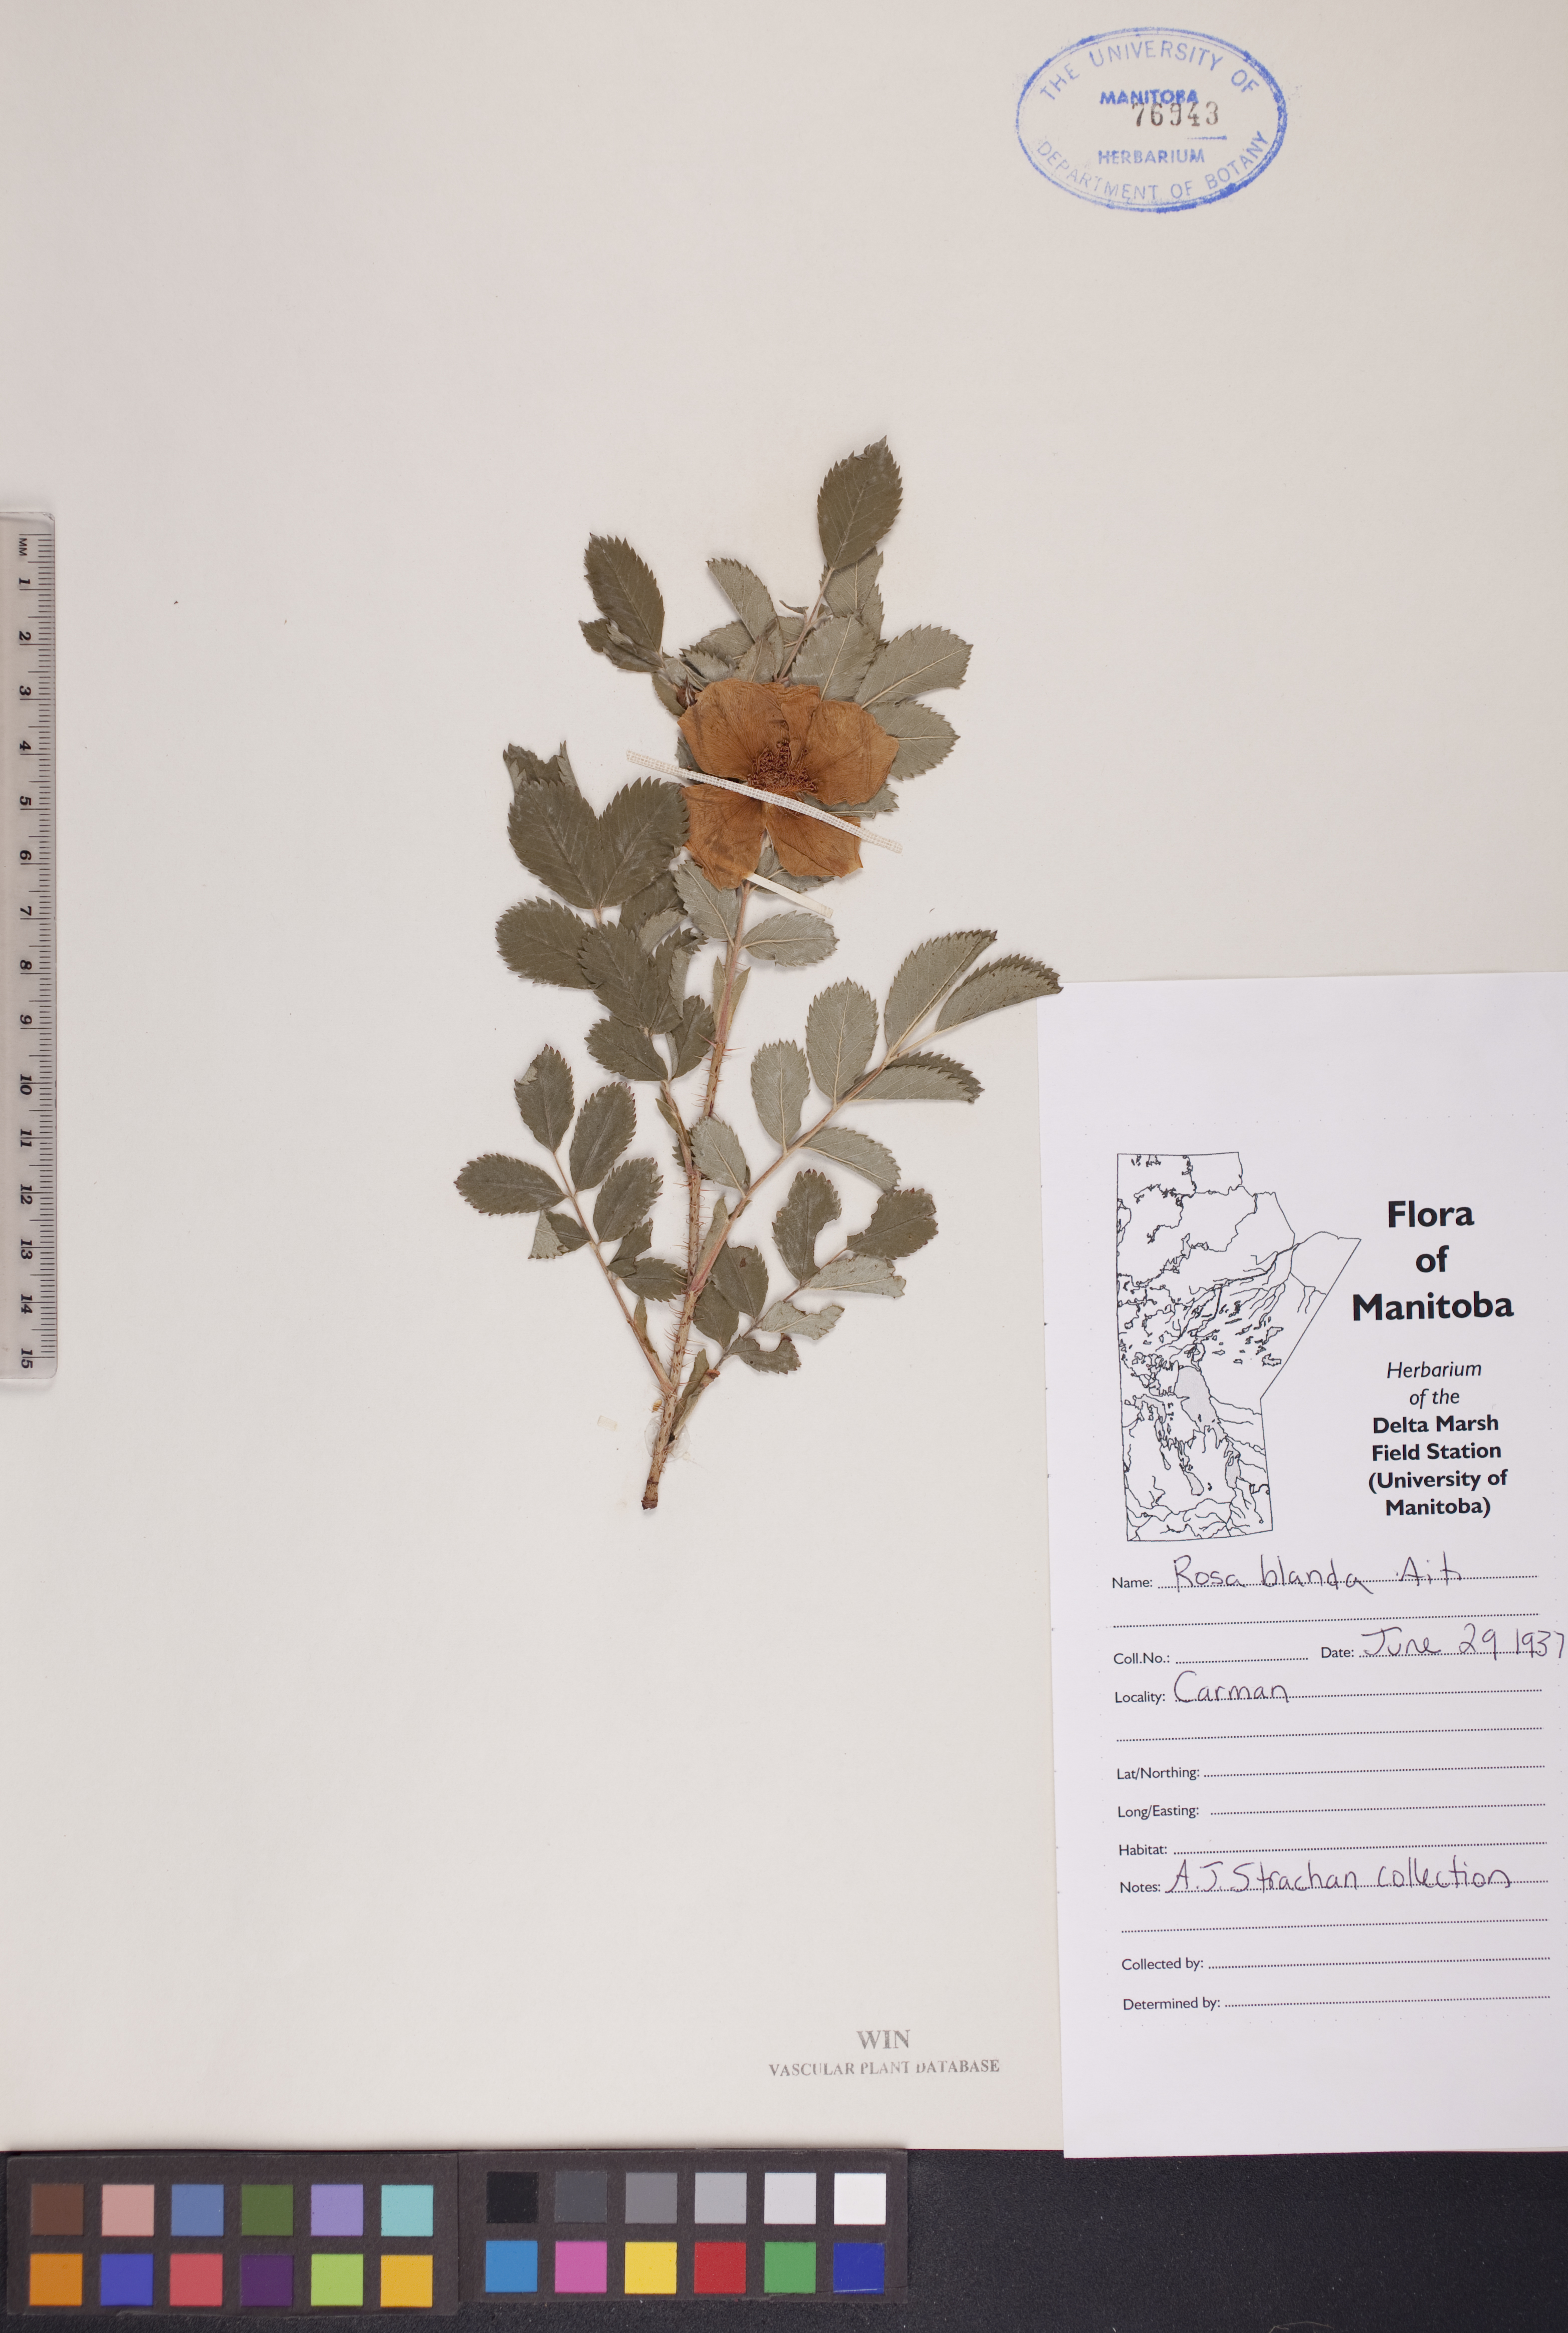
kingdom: Plantae
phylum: Tracheophyta
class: Magnoliopsida
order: Rosales
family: Rosaceae
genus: Rosa
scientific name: Rosa blanda
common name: Smooth rose
